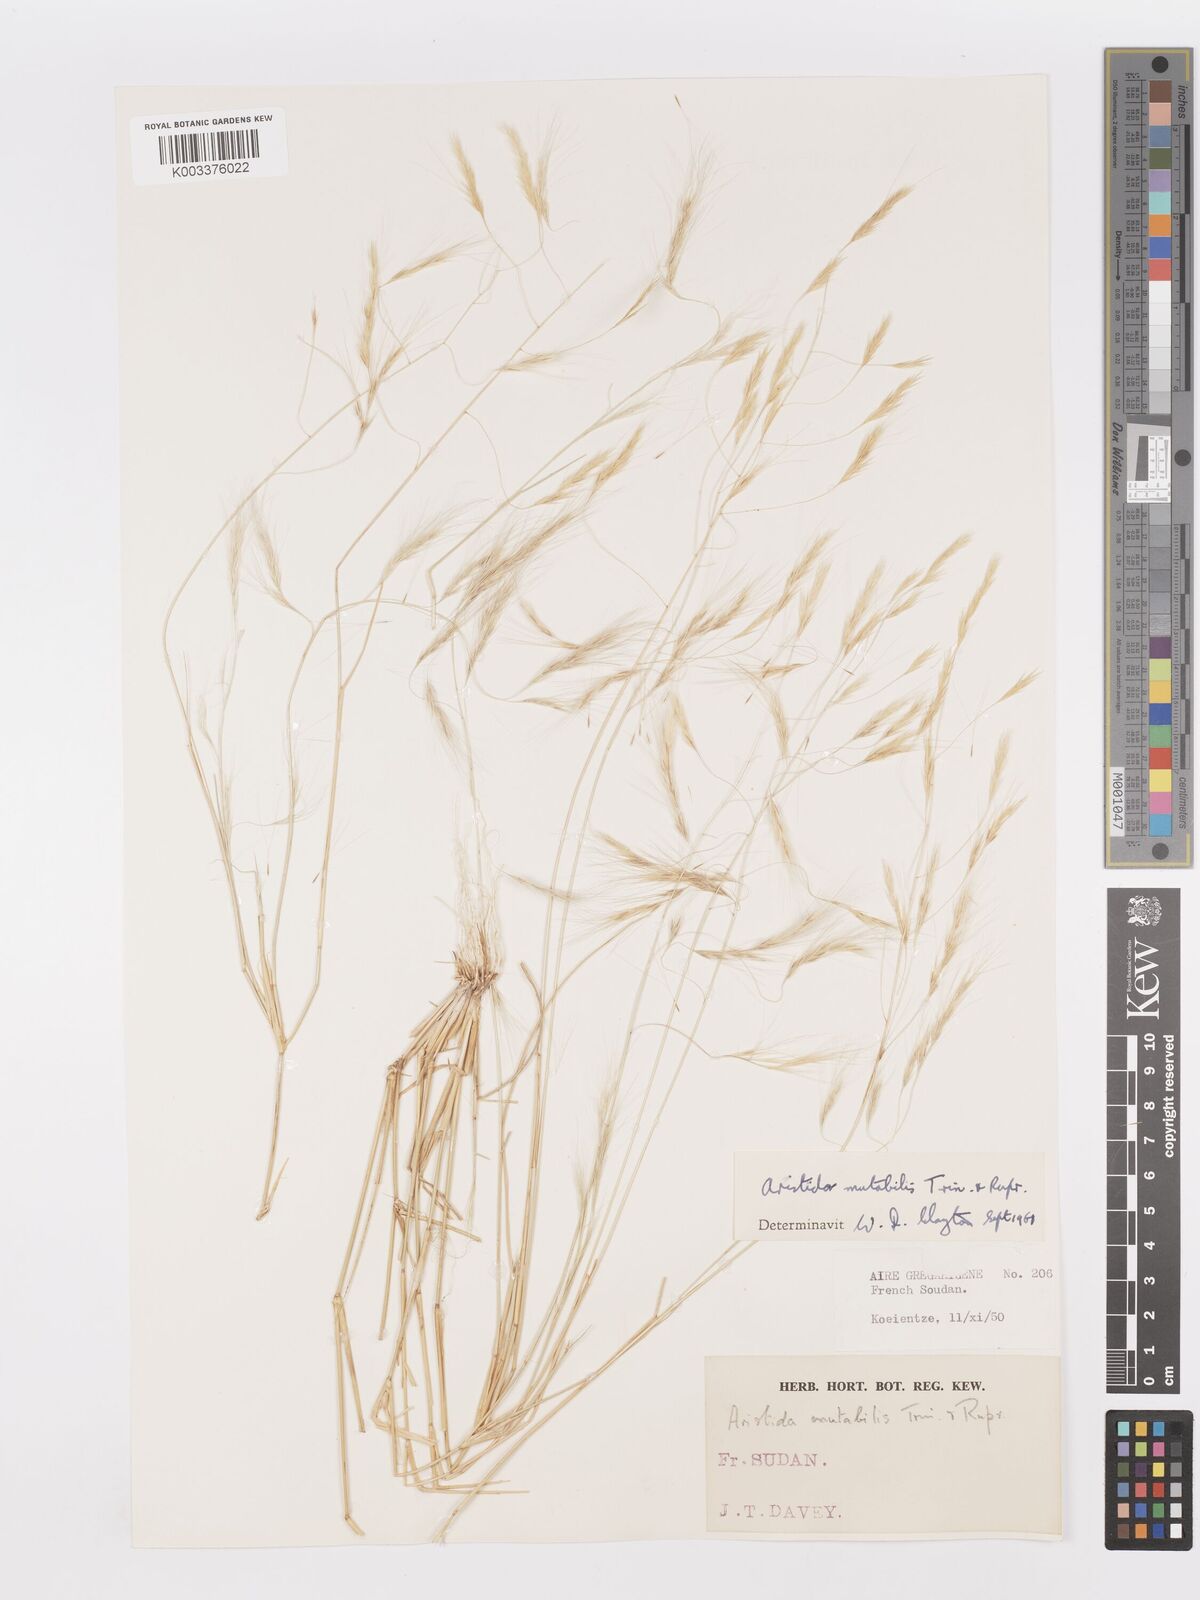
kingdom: Plantae
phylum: Tracheophyta
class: Liliopsida
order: Poales
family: Poaceae
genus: Aristida
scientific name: Aristida mutabilis
